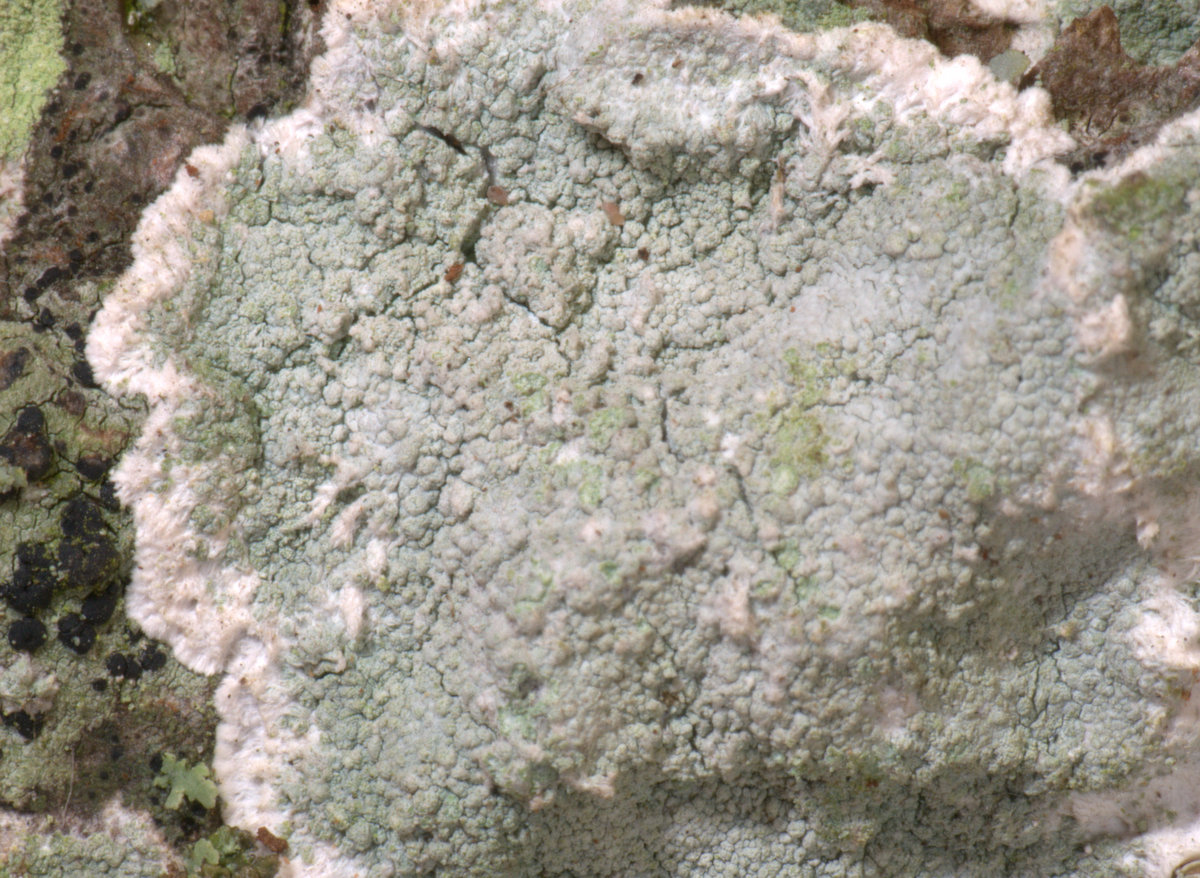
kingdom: Fungi
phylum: Ascomycota
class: Lecanoromycetes
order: Lecanorales
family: Haematommataceae
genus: Haematomma
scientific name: Haematomma ochroleucum
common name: gul trådkantlav
